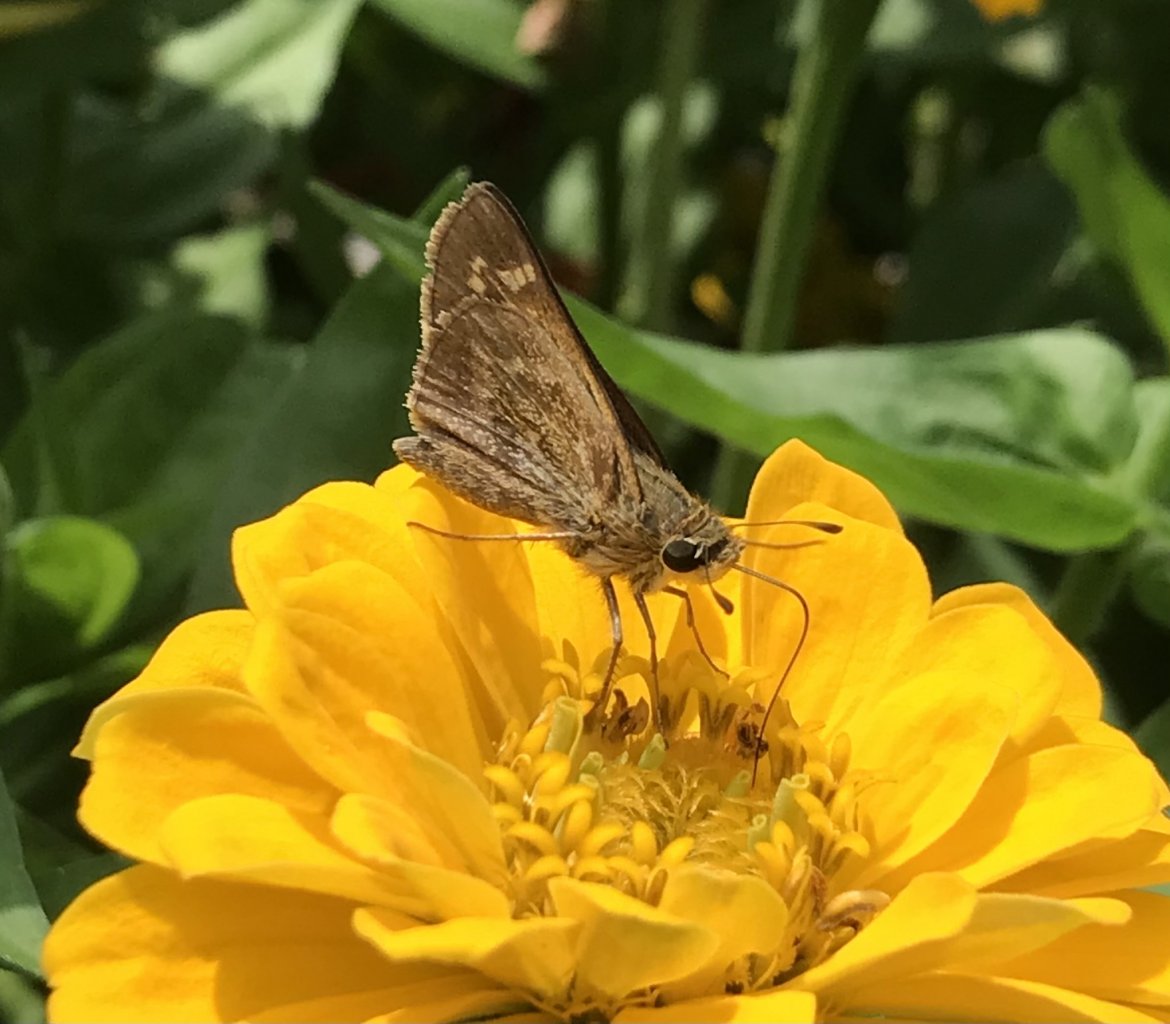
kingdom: Animalia
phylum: Arthropoda
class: Insecta
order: Lepidoptera
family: Hesperiidae
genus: Atalopedes
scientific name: Atalopedes campestris
